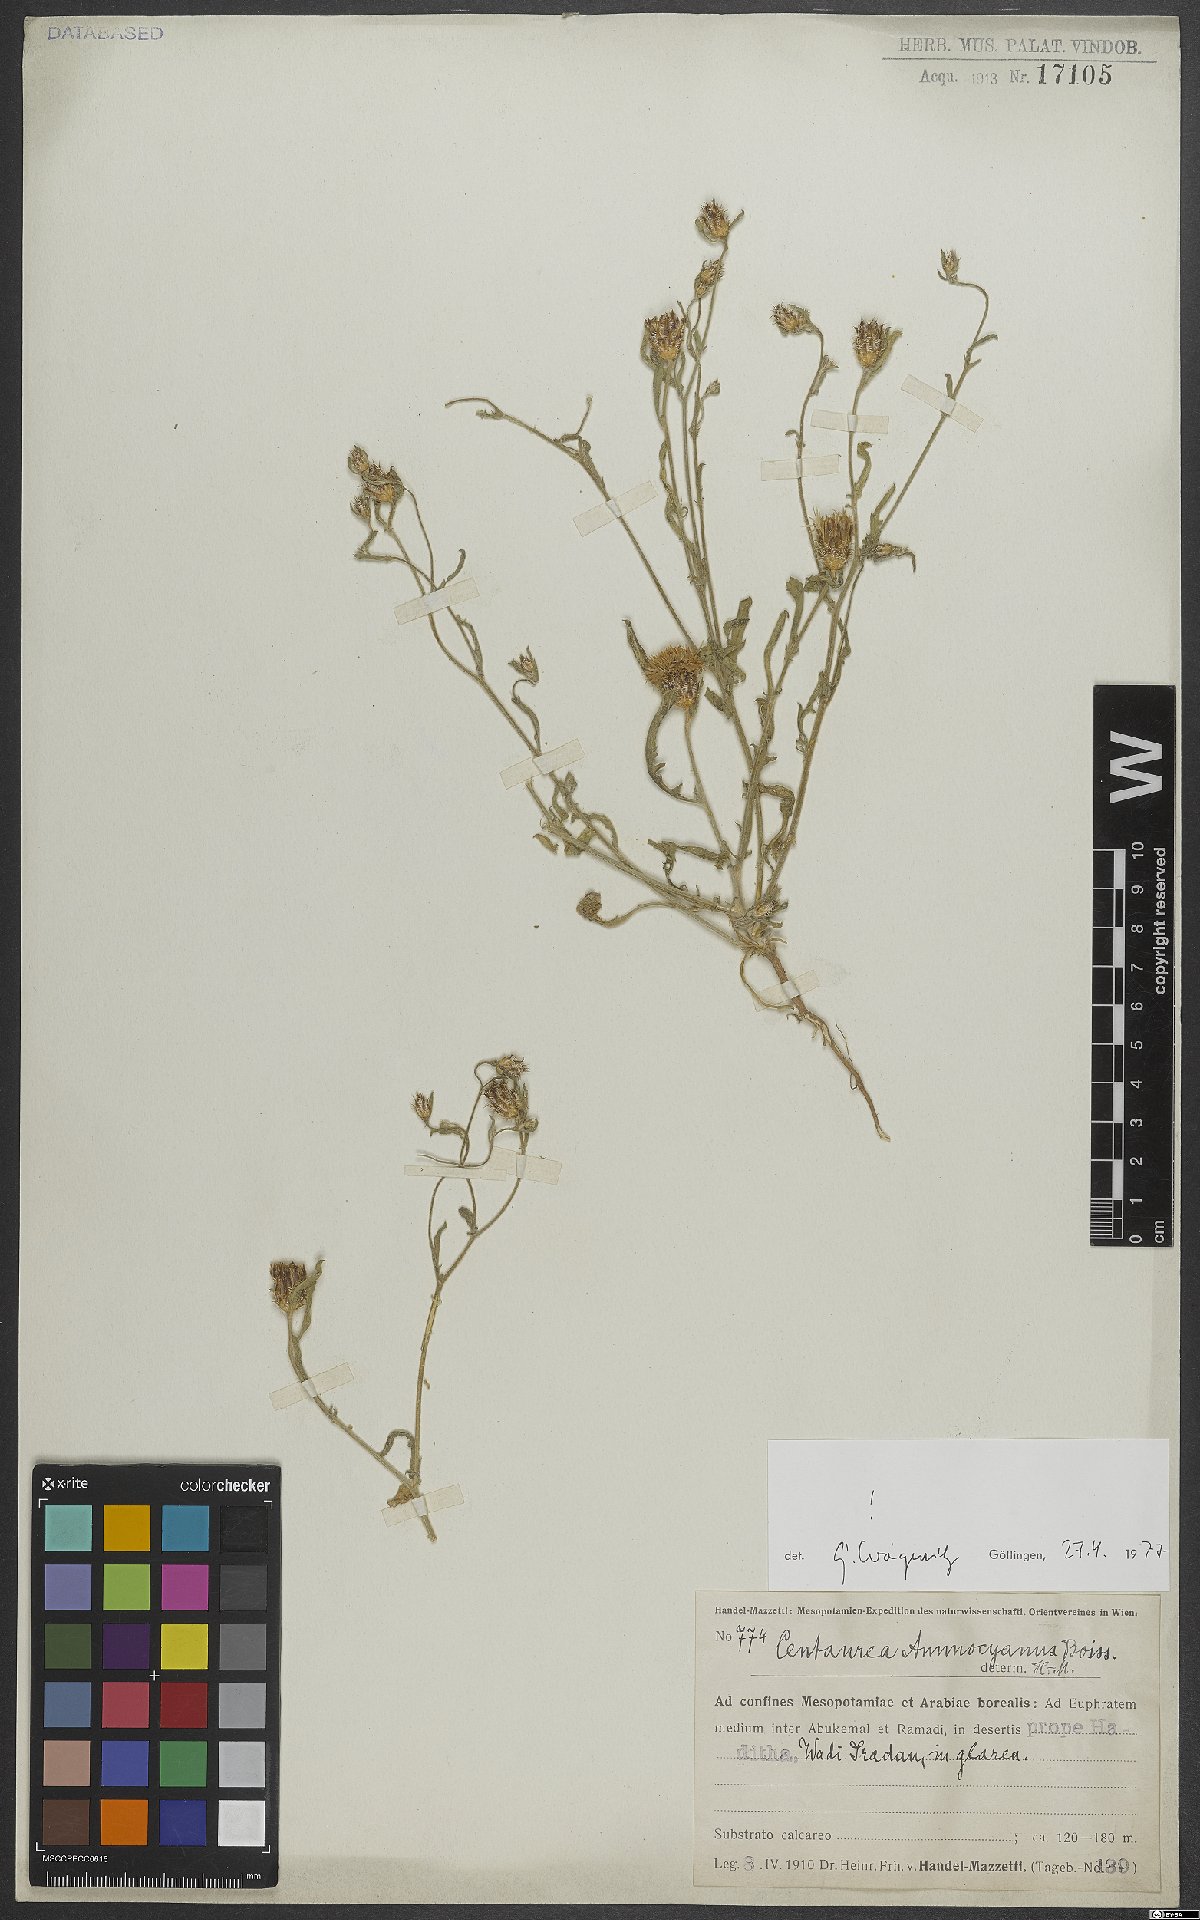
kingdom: Plantae
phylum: Tracheophyta
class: Magnoliopsida
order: Asterales
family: Asteraceae
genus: Centaurea
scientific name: Centaurea ammocyanus
